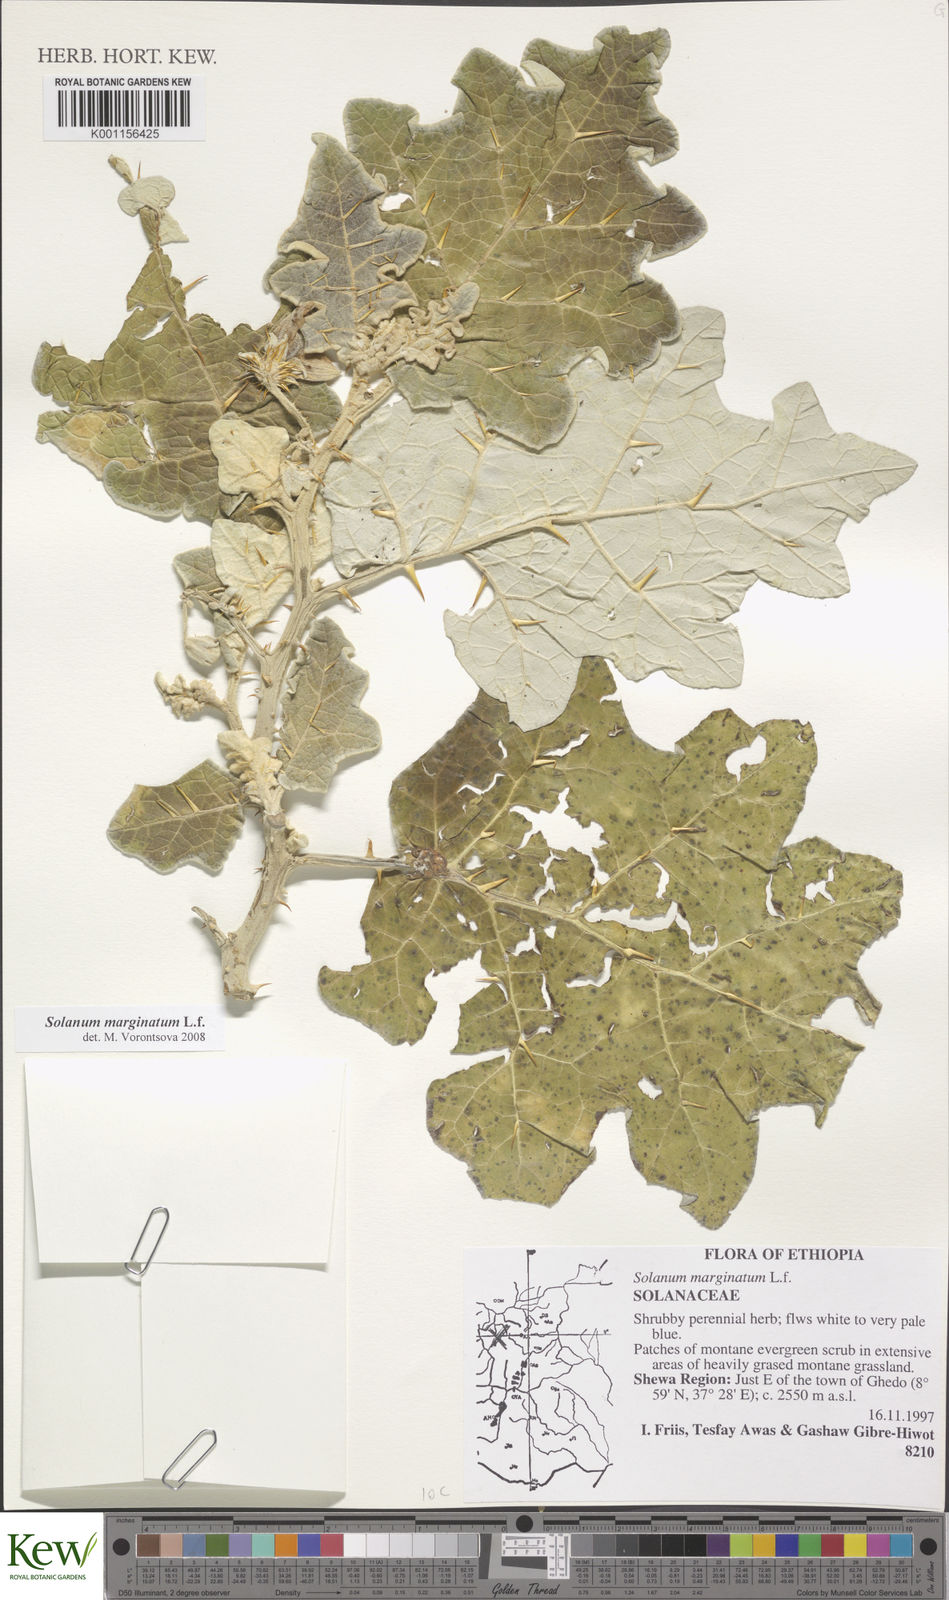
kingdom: Plantae
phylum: Tracheophyta
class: Magnoliopsida
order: Solanales
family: Solanaceae
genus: Solanum
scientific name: Solanum marginatum
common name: Purple african nightshade
